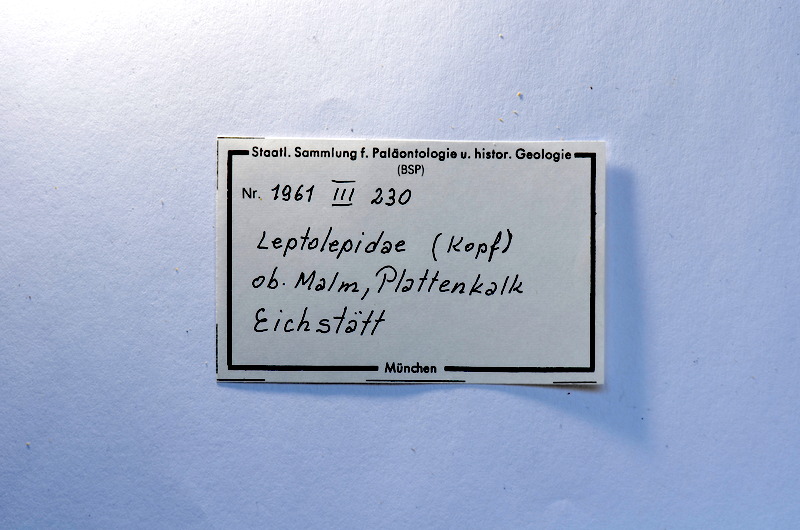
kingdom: Animalia
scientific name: Animalia
